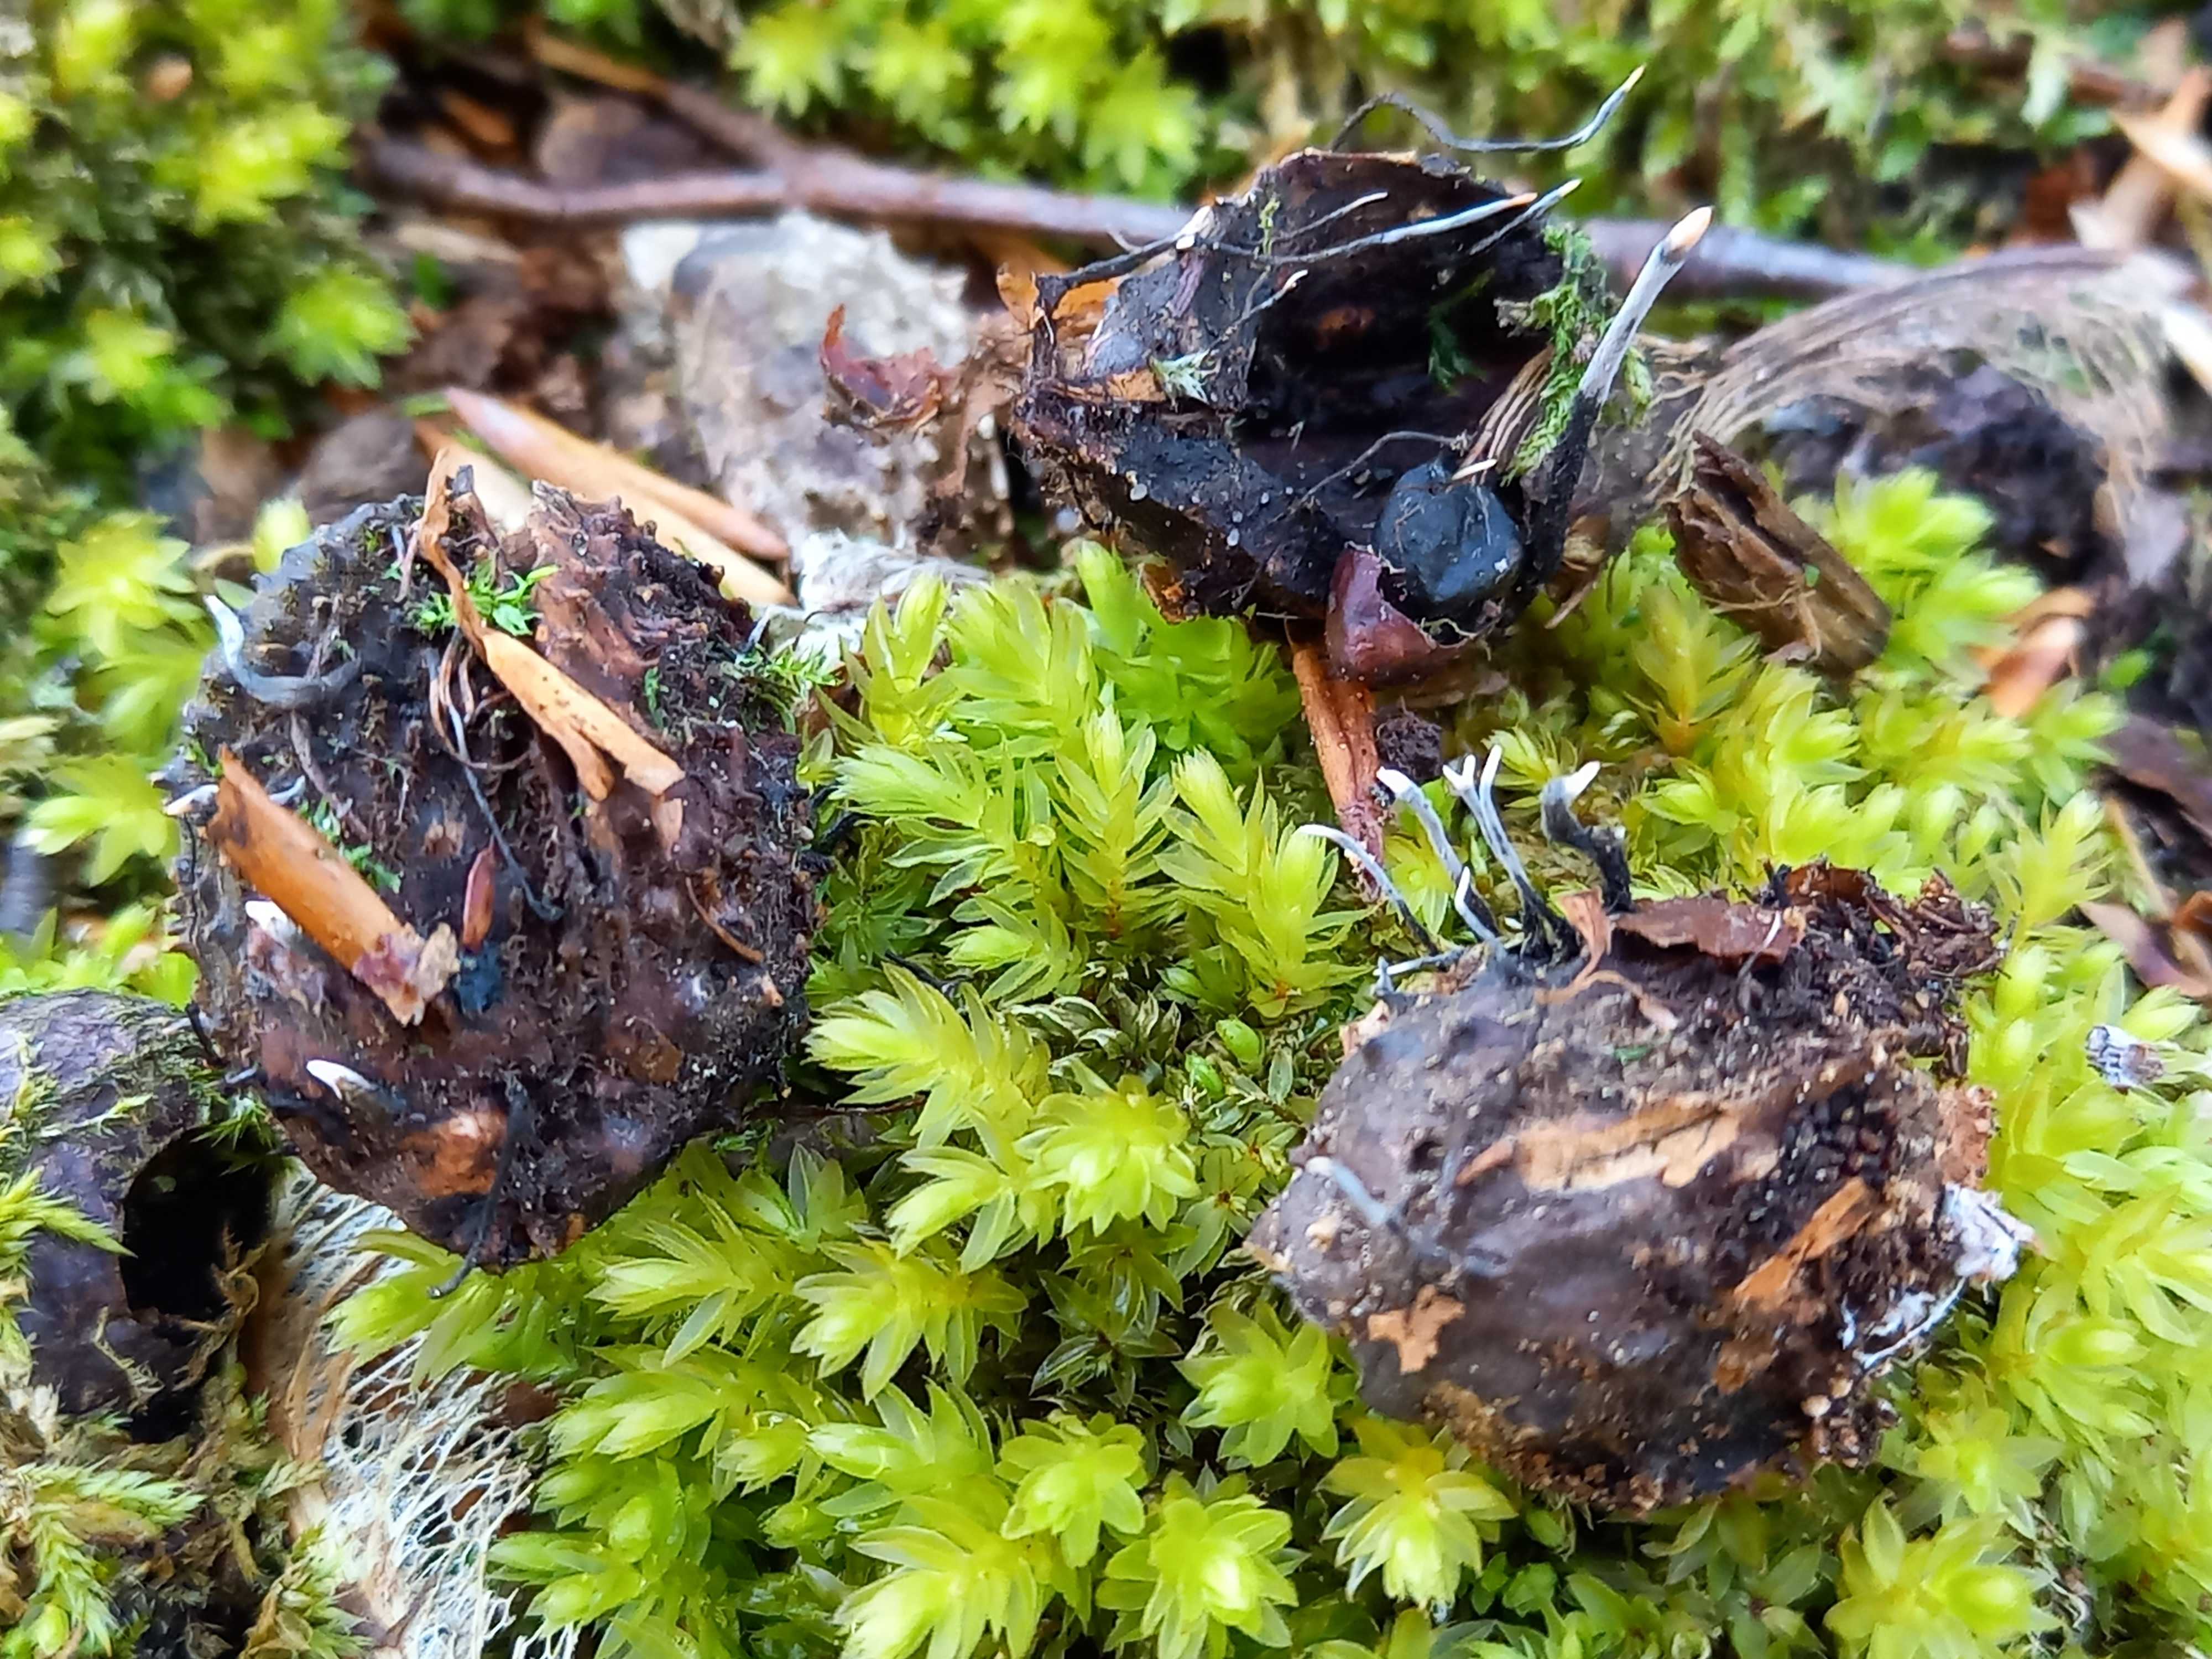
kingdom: Fungi
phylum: Ascomycota
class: Sordariomycetes
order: Xylariales
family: Xylariaceae
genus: Xylaria
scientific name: Xylaria carpophila
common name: bogskål-stødsvamp
